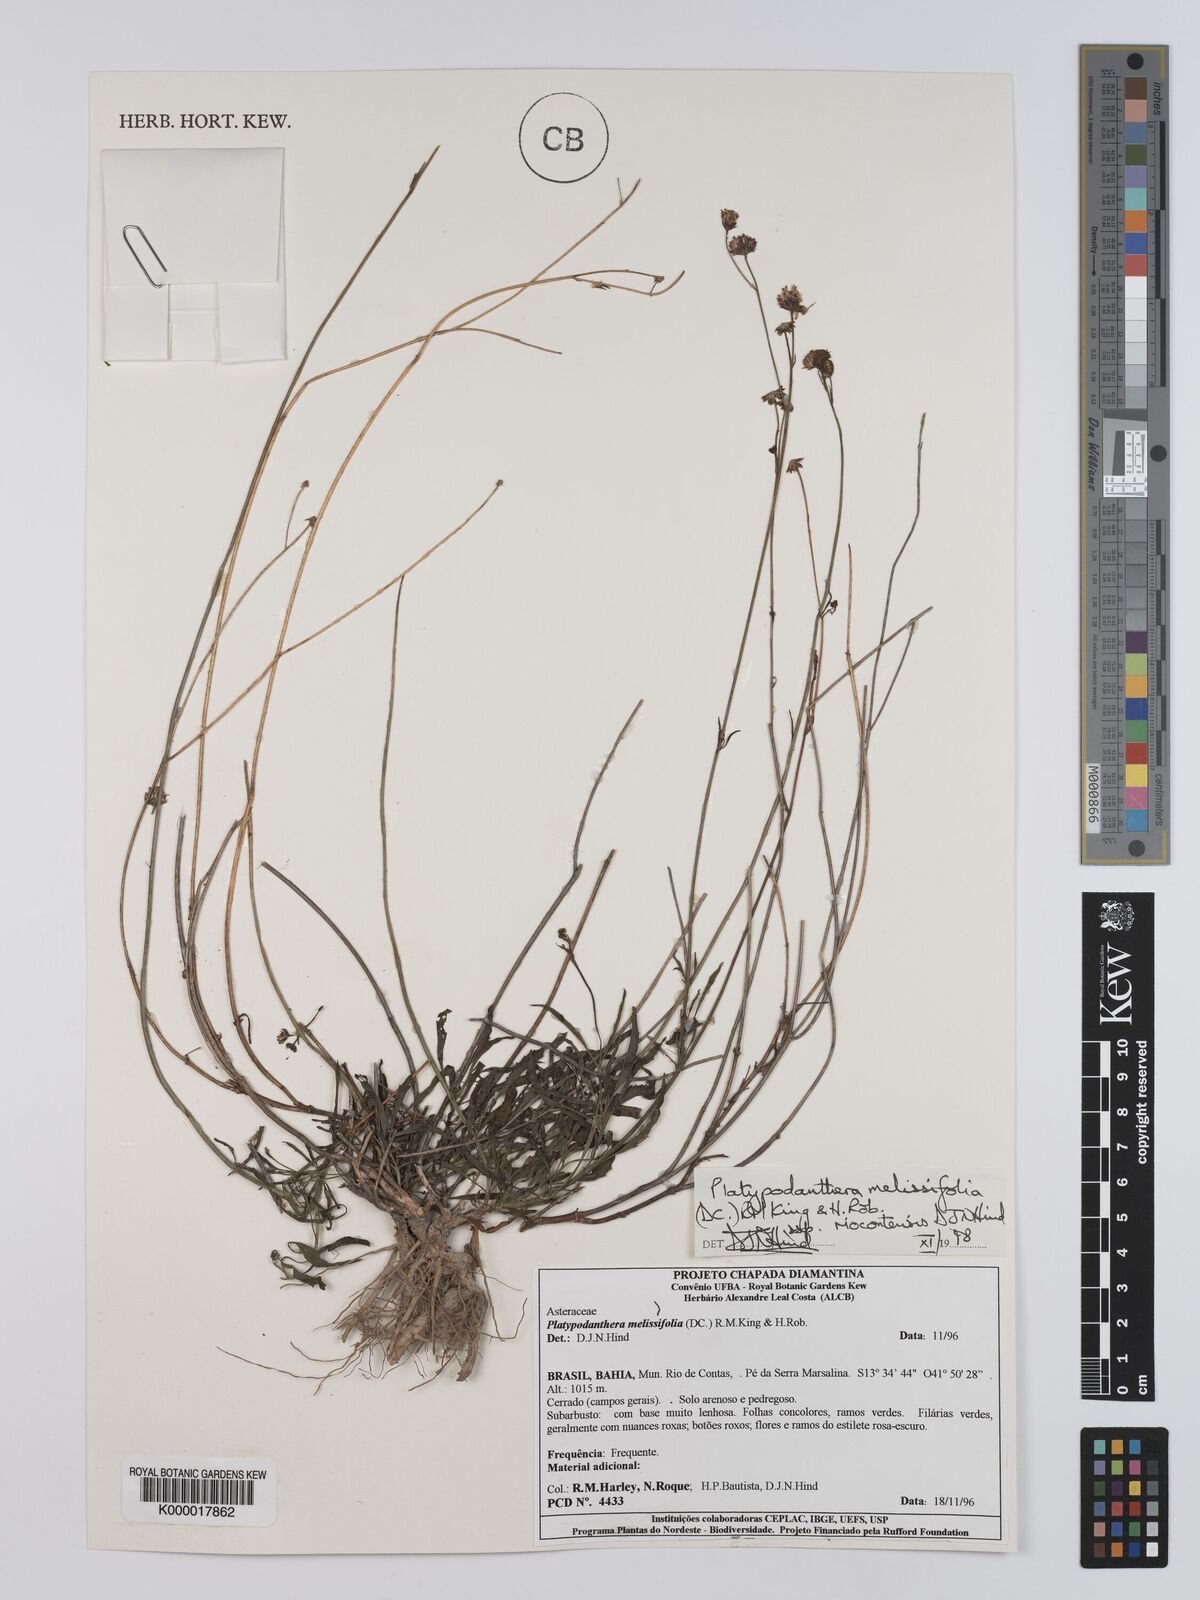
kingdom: Plantae
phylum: Tracheophyta
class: Magnoliopsida
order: Asterales
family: Asteraceae
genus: Platypodanthera
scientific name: Platypodanthera melissifolia
